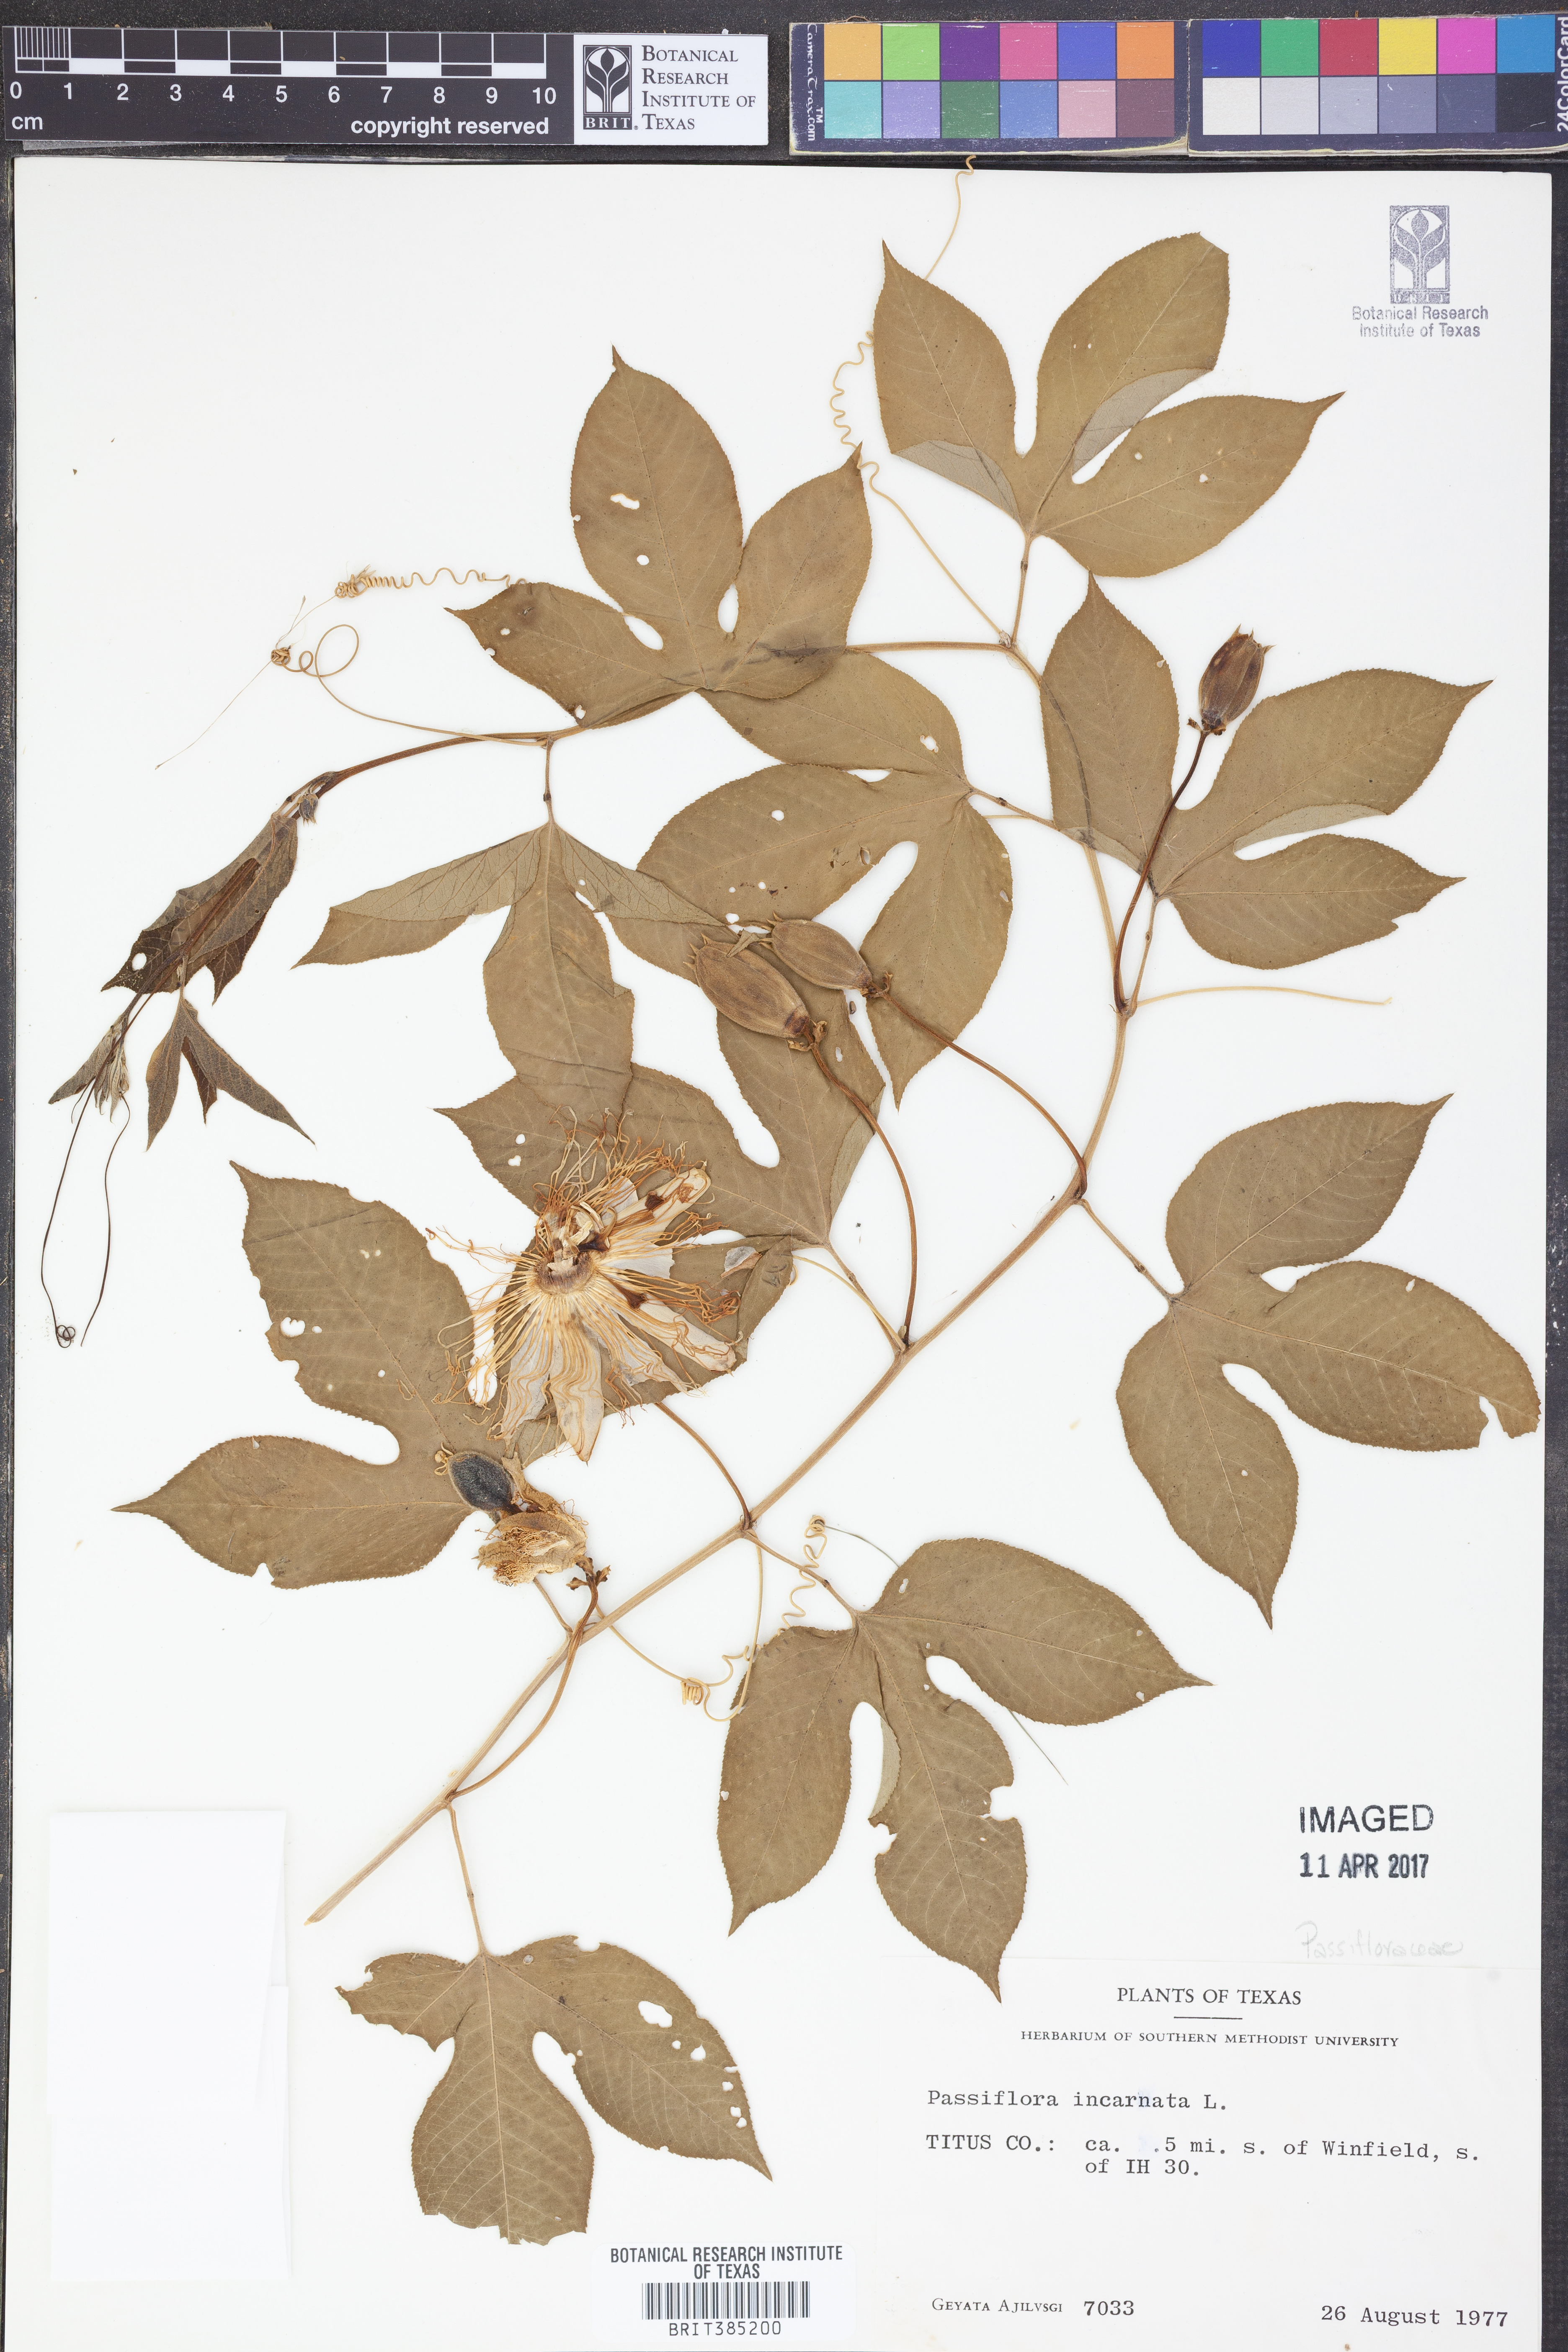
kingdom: Plantae
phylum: Tracheophyta
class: Magnoliopsida
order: Malpighiales
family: Passifloraceae
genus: Passiflora
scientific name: Passiflora incarnata
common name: Apricot-vine
